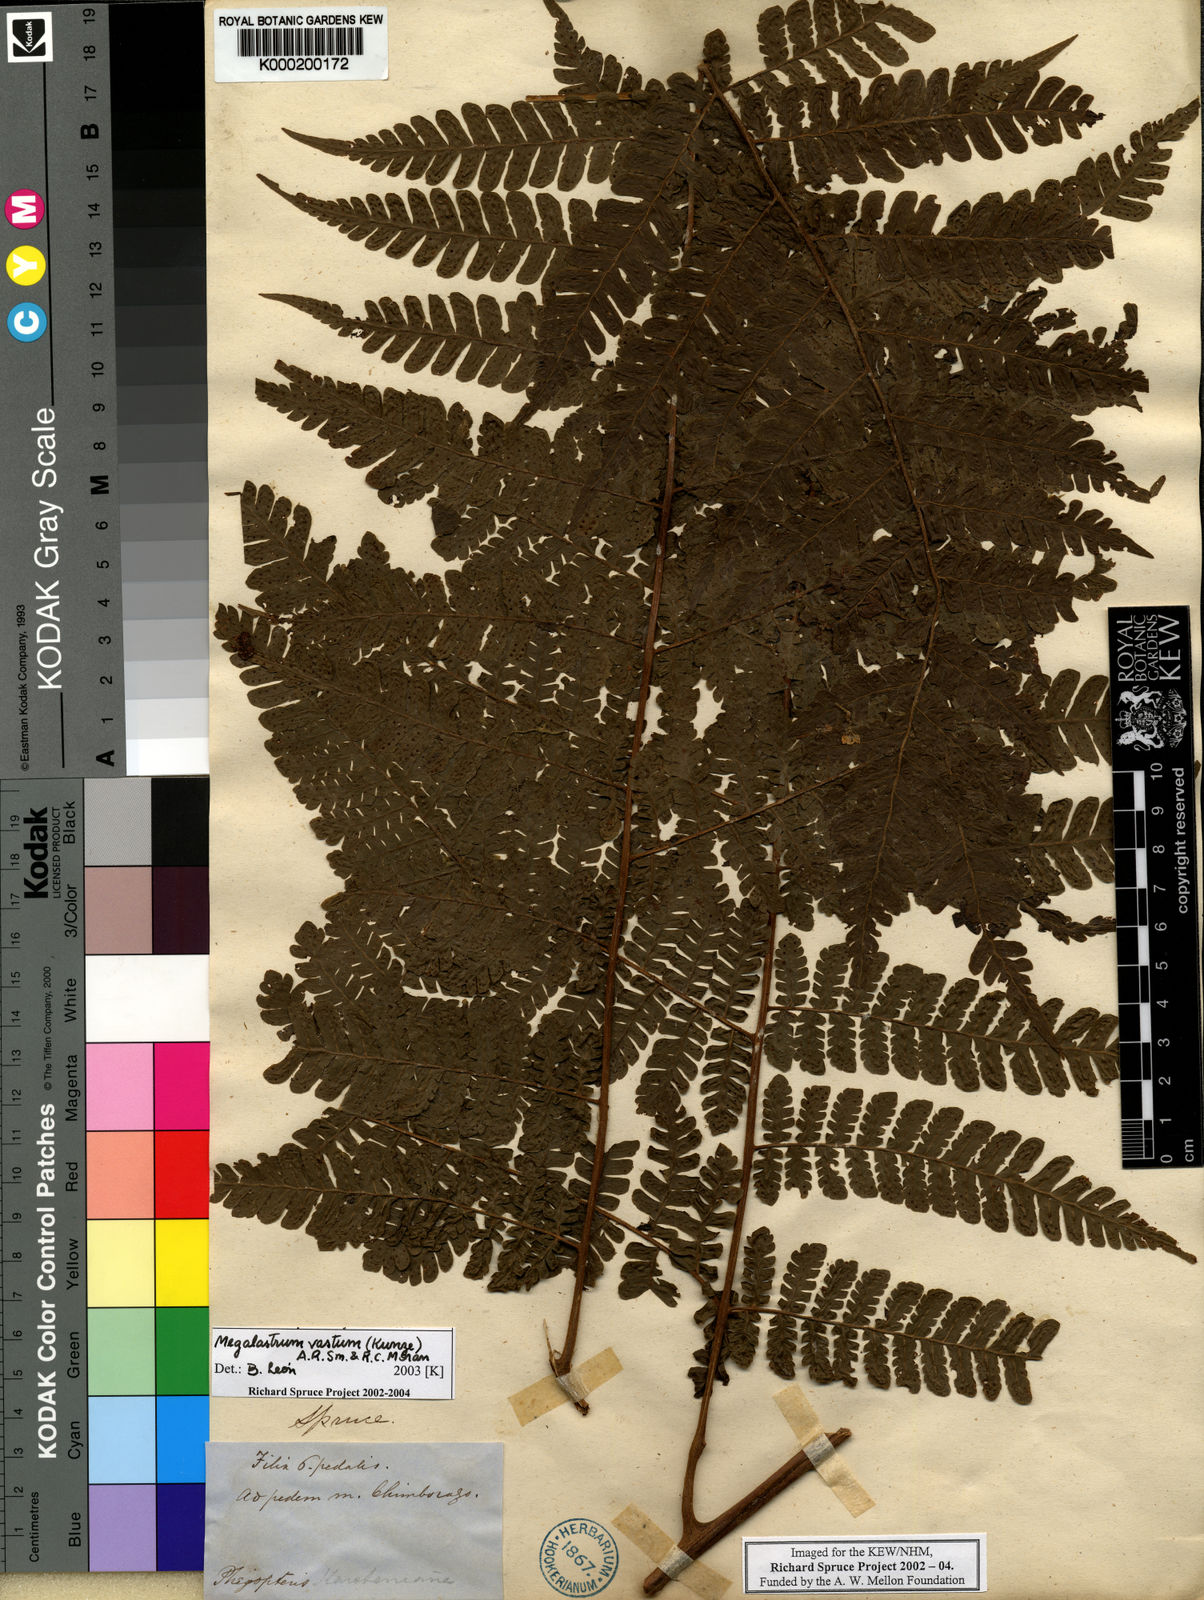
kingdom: Plantae
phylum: Tracheophyta
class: Polypodiopsida
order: Polypodiales
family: Dryopteridaceae
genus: Megalastrum
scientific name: Megalastrum vastum
